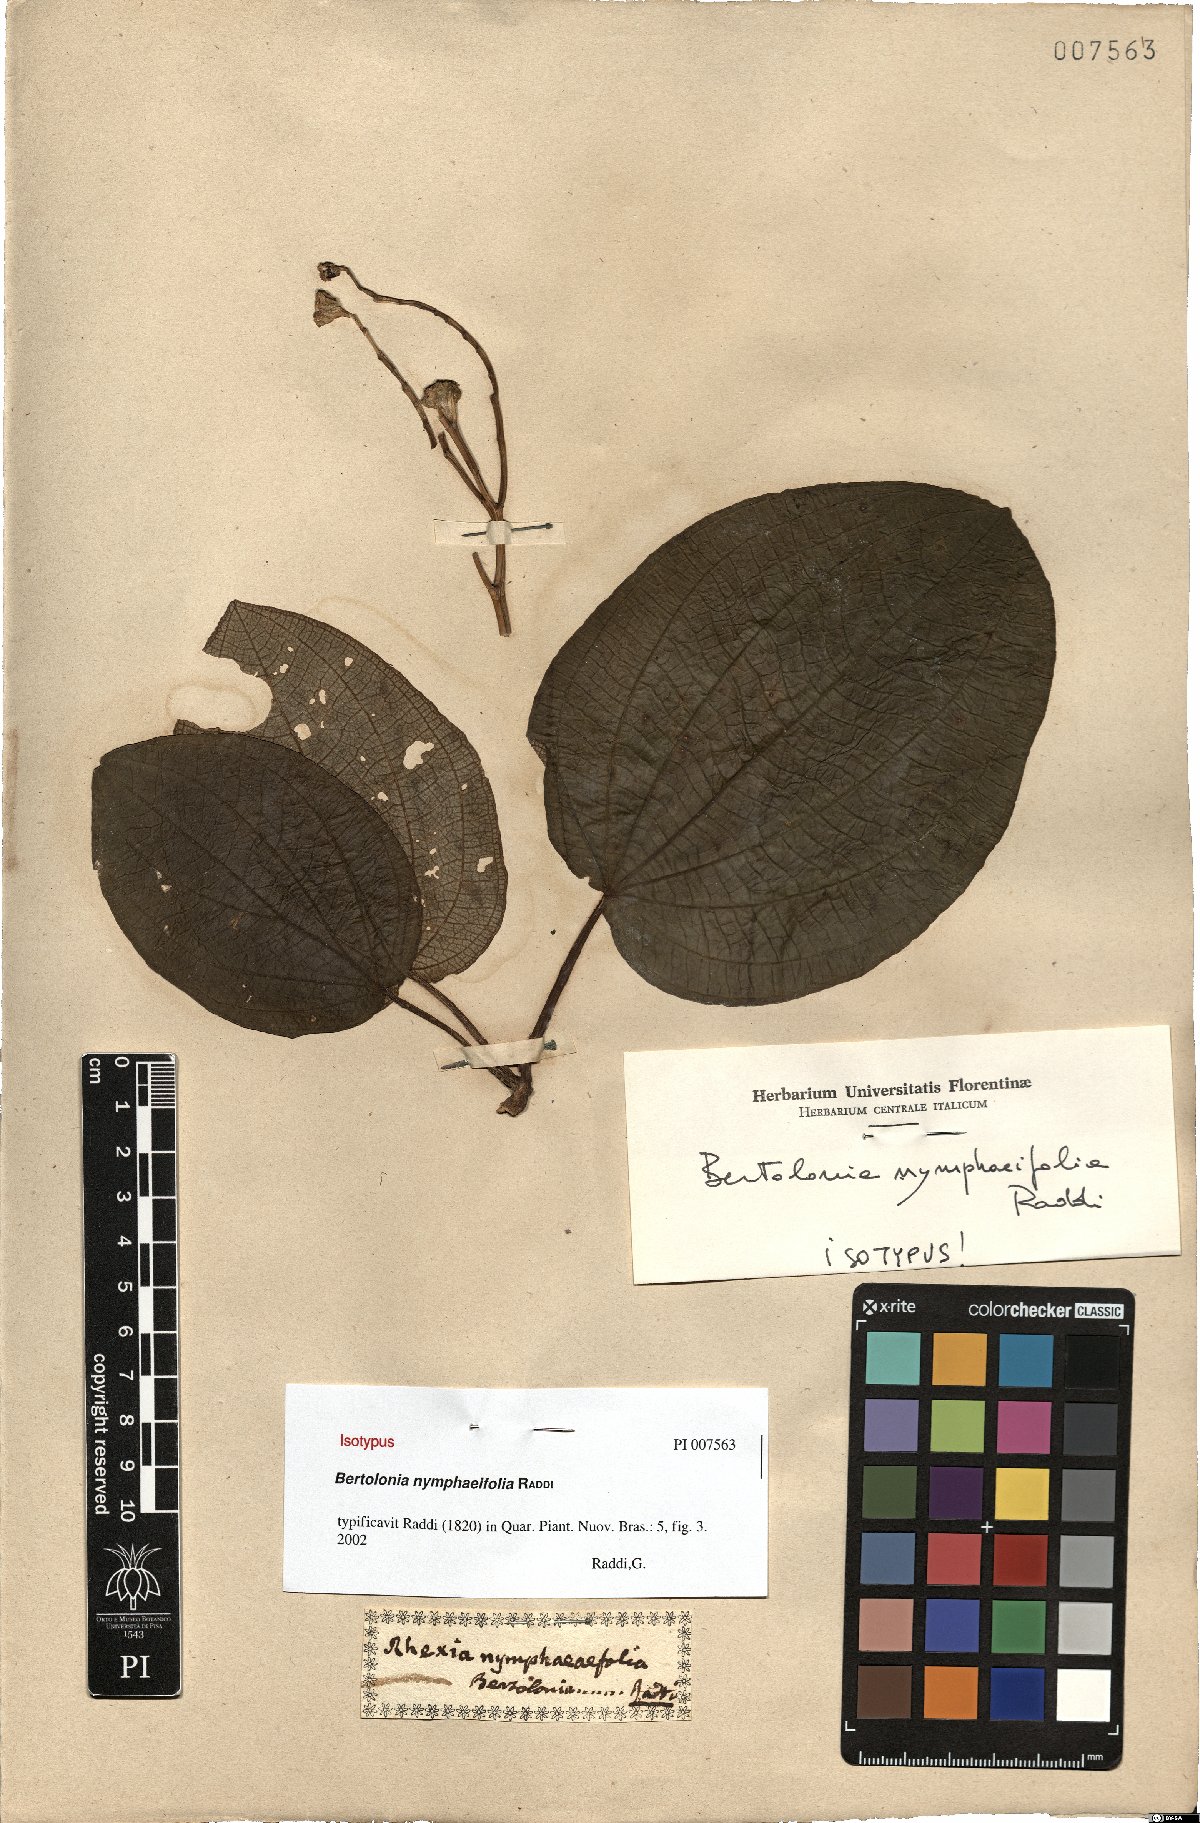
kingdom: Plantae
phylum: Tracheophyta
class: Magnoliopsida
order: Myrtales
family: Melastomataceae
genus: Bertolonia
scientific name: Bertolonia nymphaeifolia
